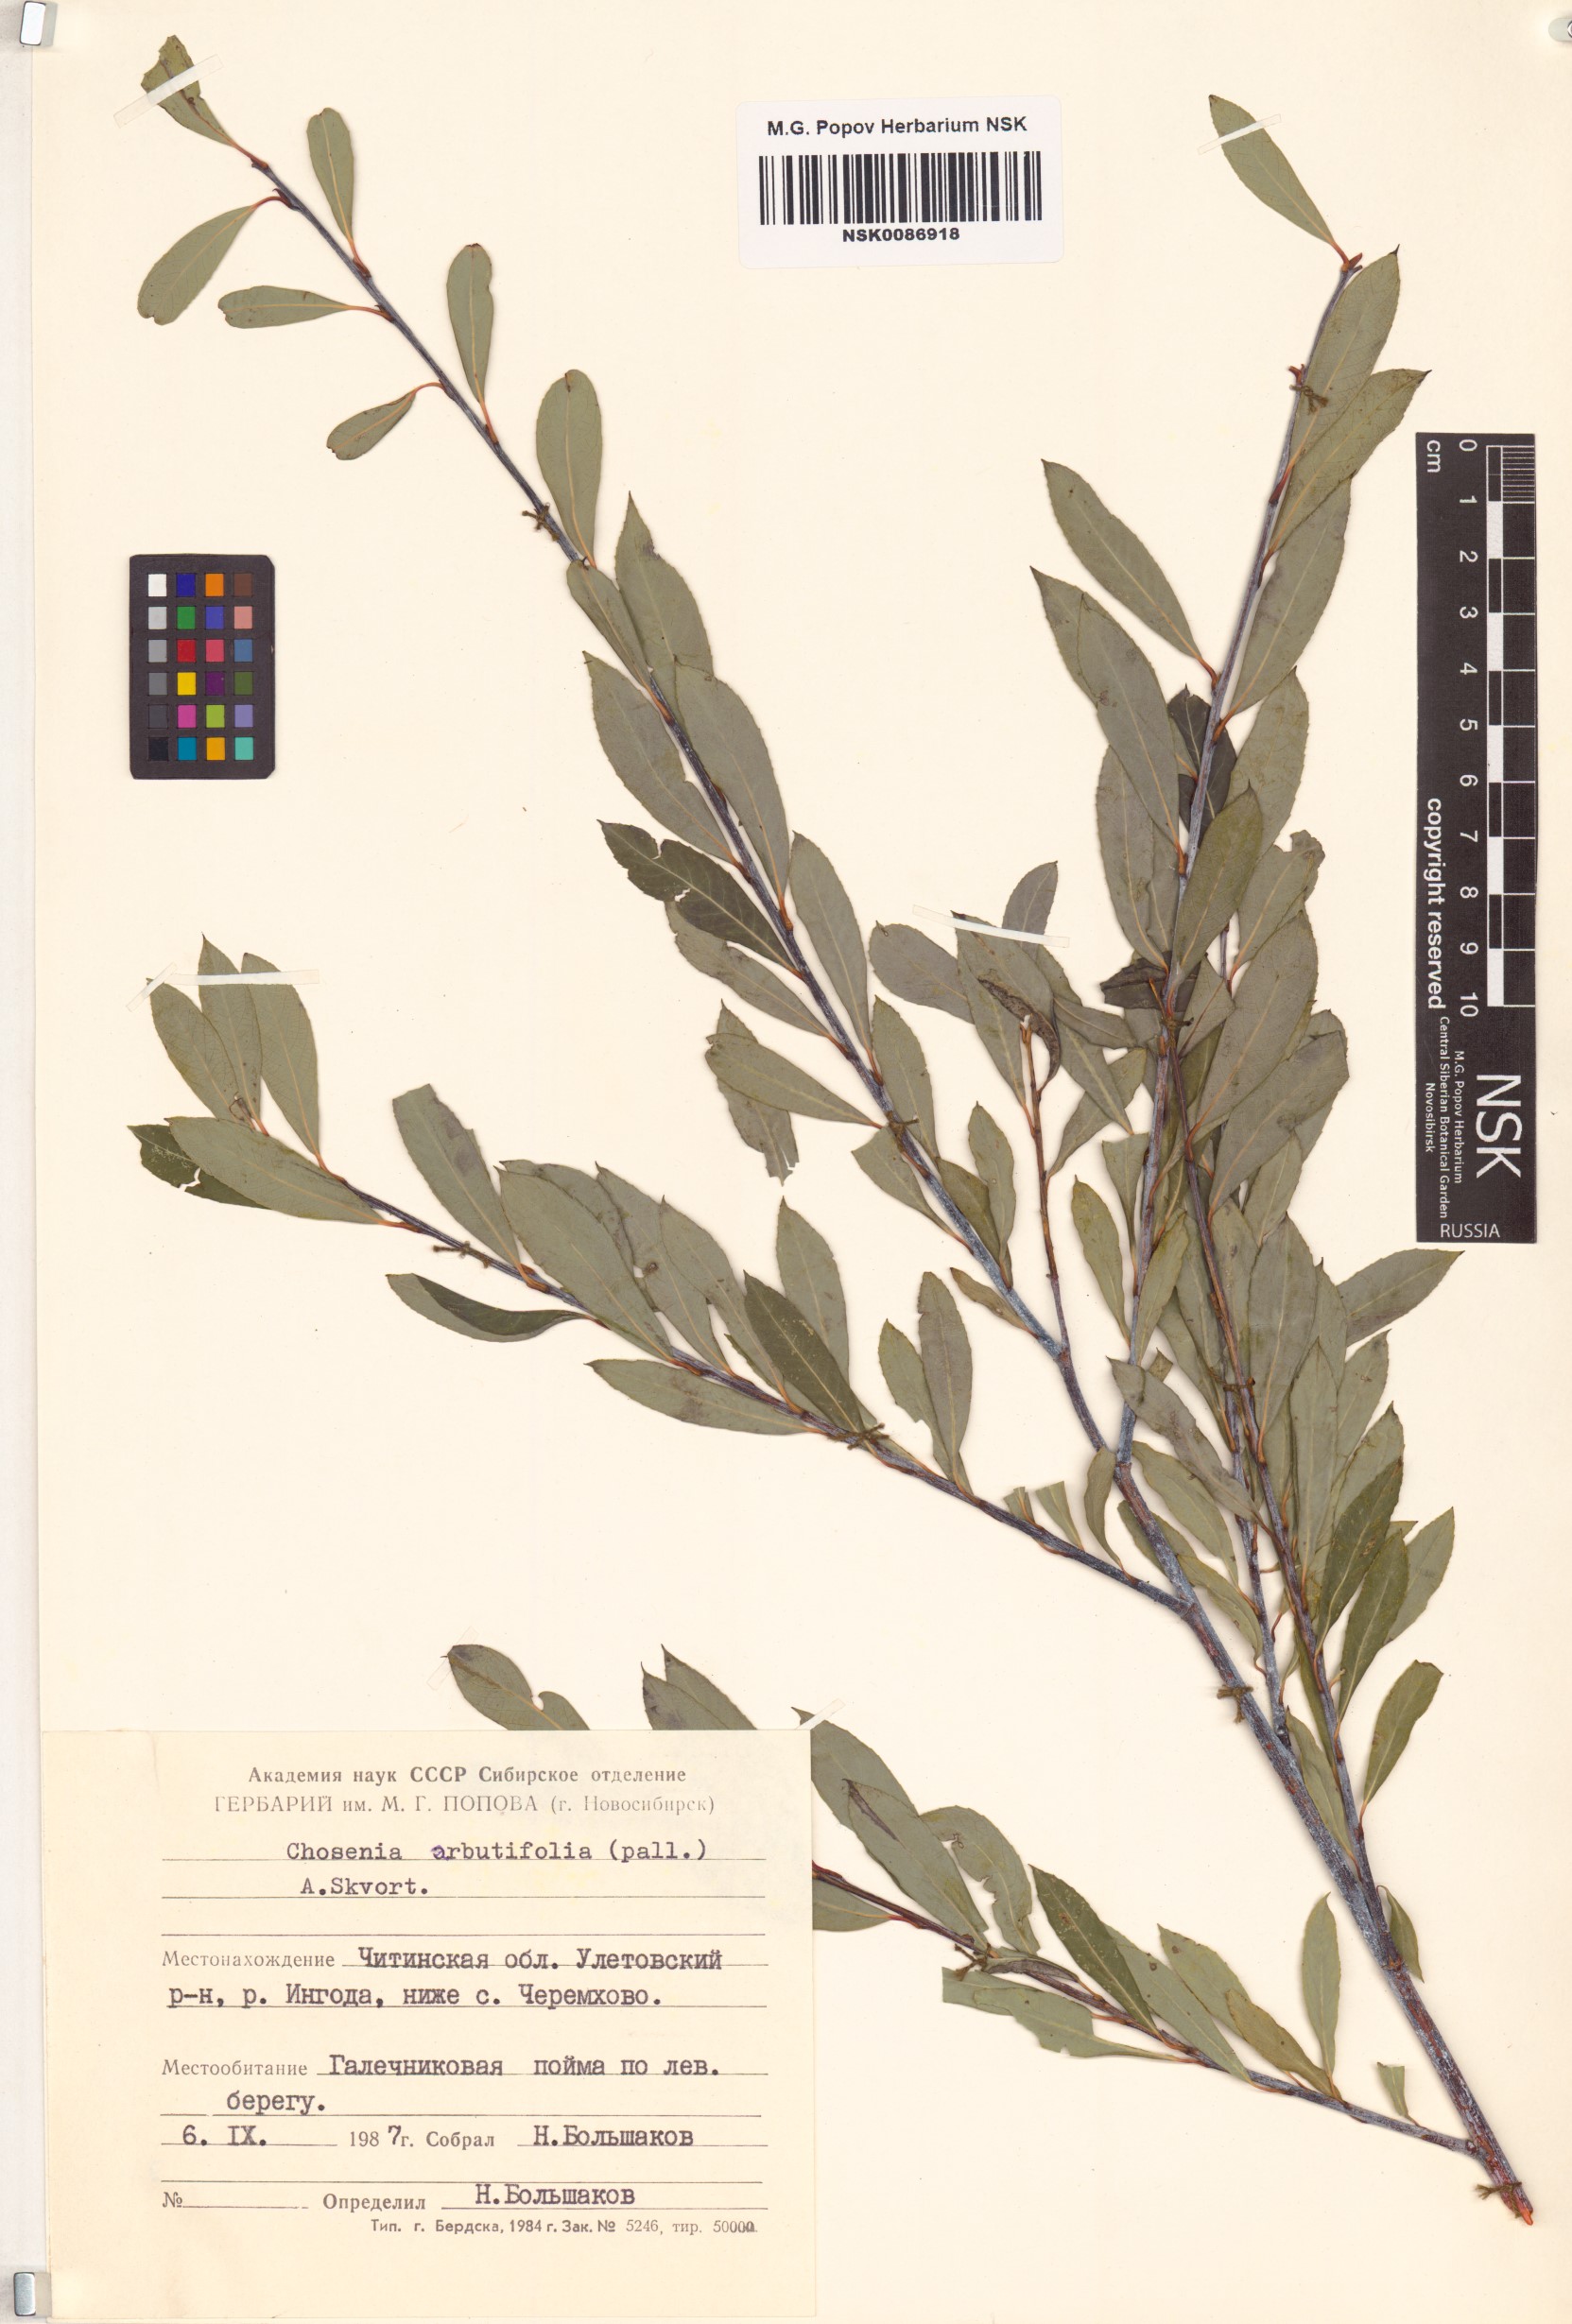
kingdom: Plantae
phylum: Tracheophyta
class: Magnoliopsida
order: Malpighiales
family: Salicaceae
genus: Chosenia
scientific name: Chosenia arbutifolia
